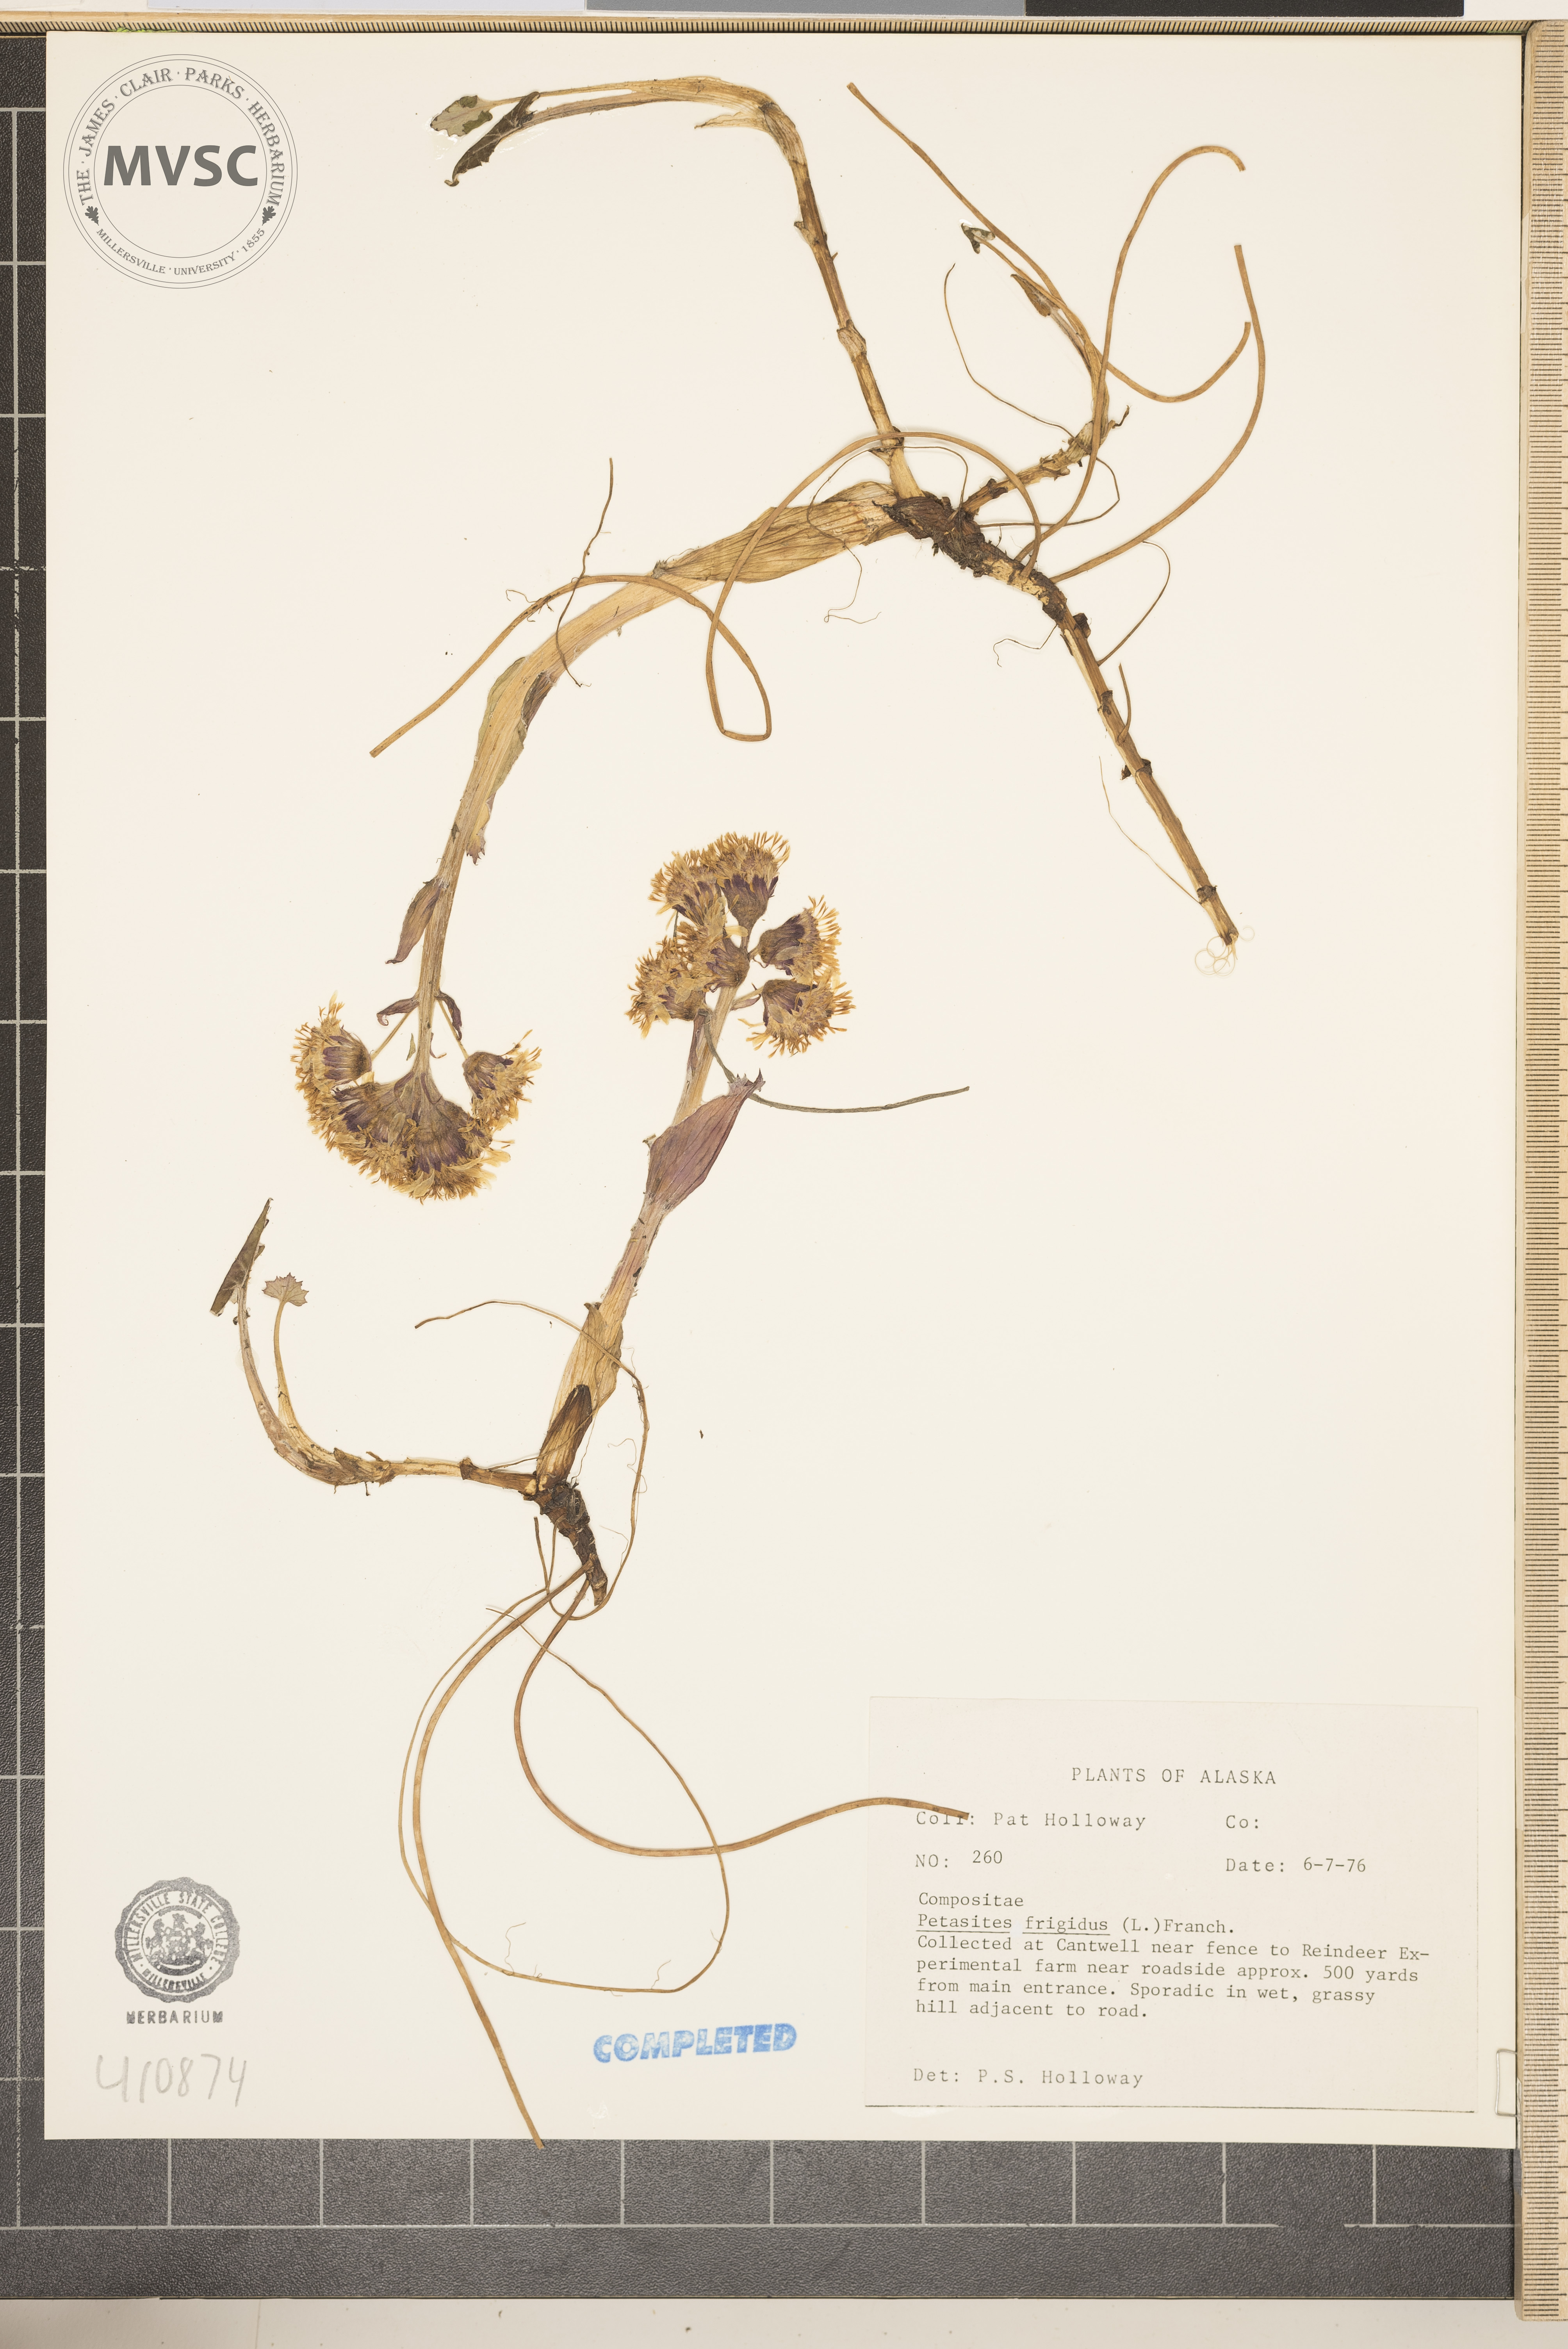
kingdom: Plantae
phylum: Tracheophyta
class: Magnoliopsida
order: Asterales
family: Asteraceae
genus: Petasites
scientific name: Petasites frigidus
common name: Arctic butterbur
